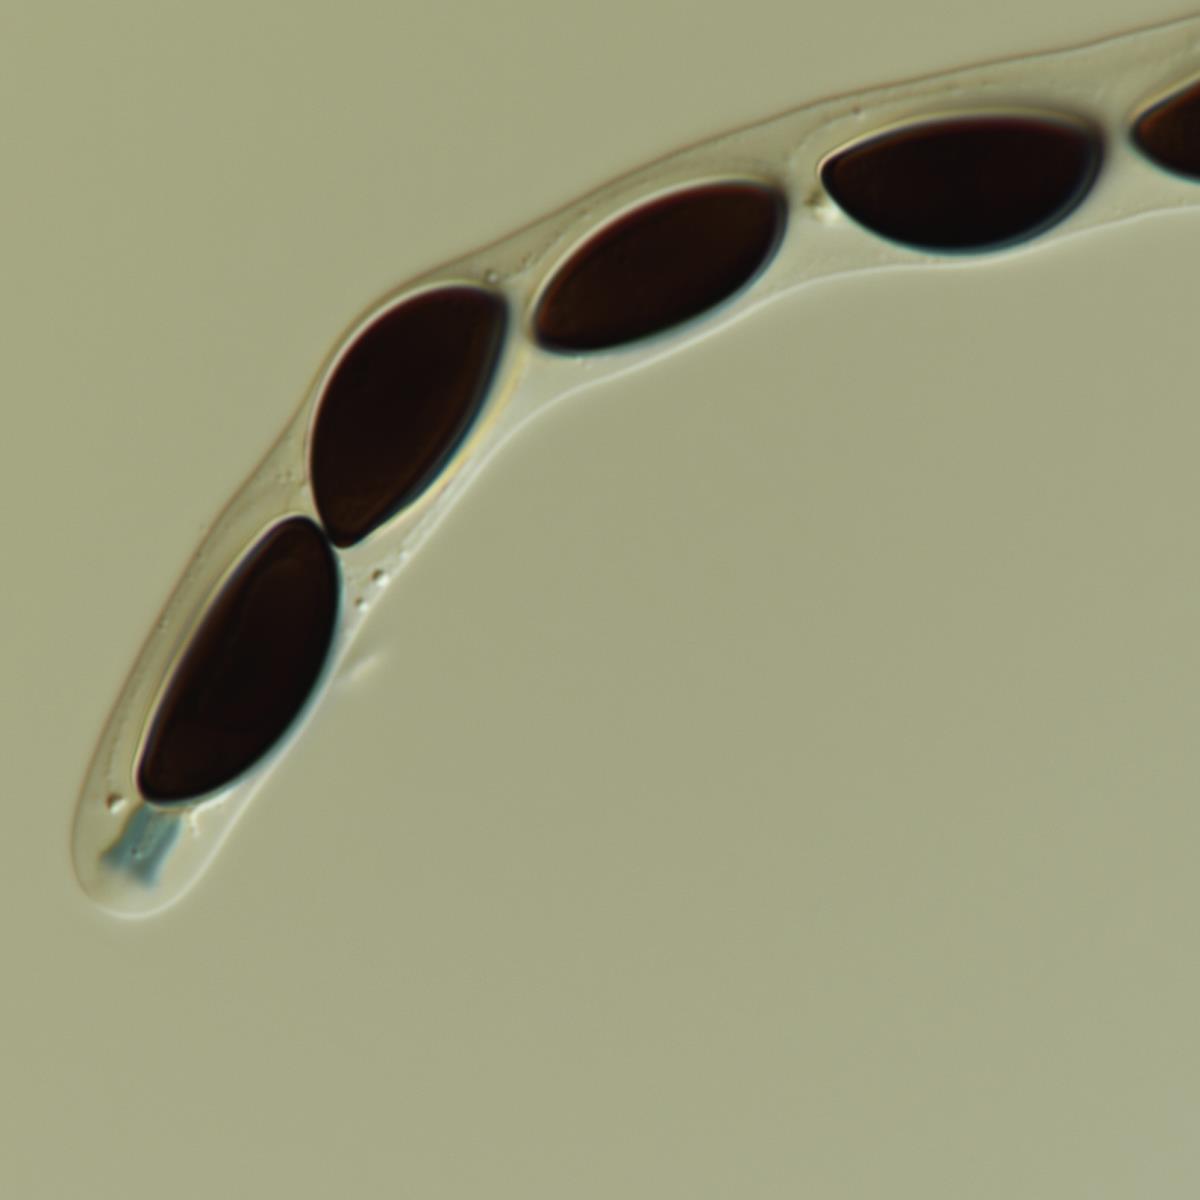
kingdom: Fungi
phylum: Ascomycota
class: Sordariomycetes
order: Xylariales
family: Xylariaceae
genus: Entalbostroma
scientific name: Entalbostroma erumpens
